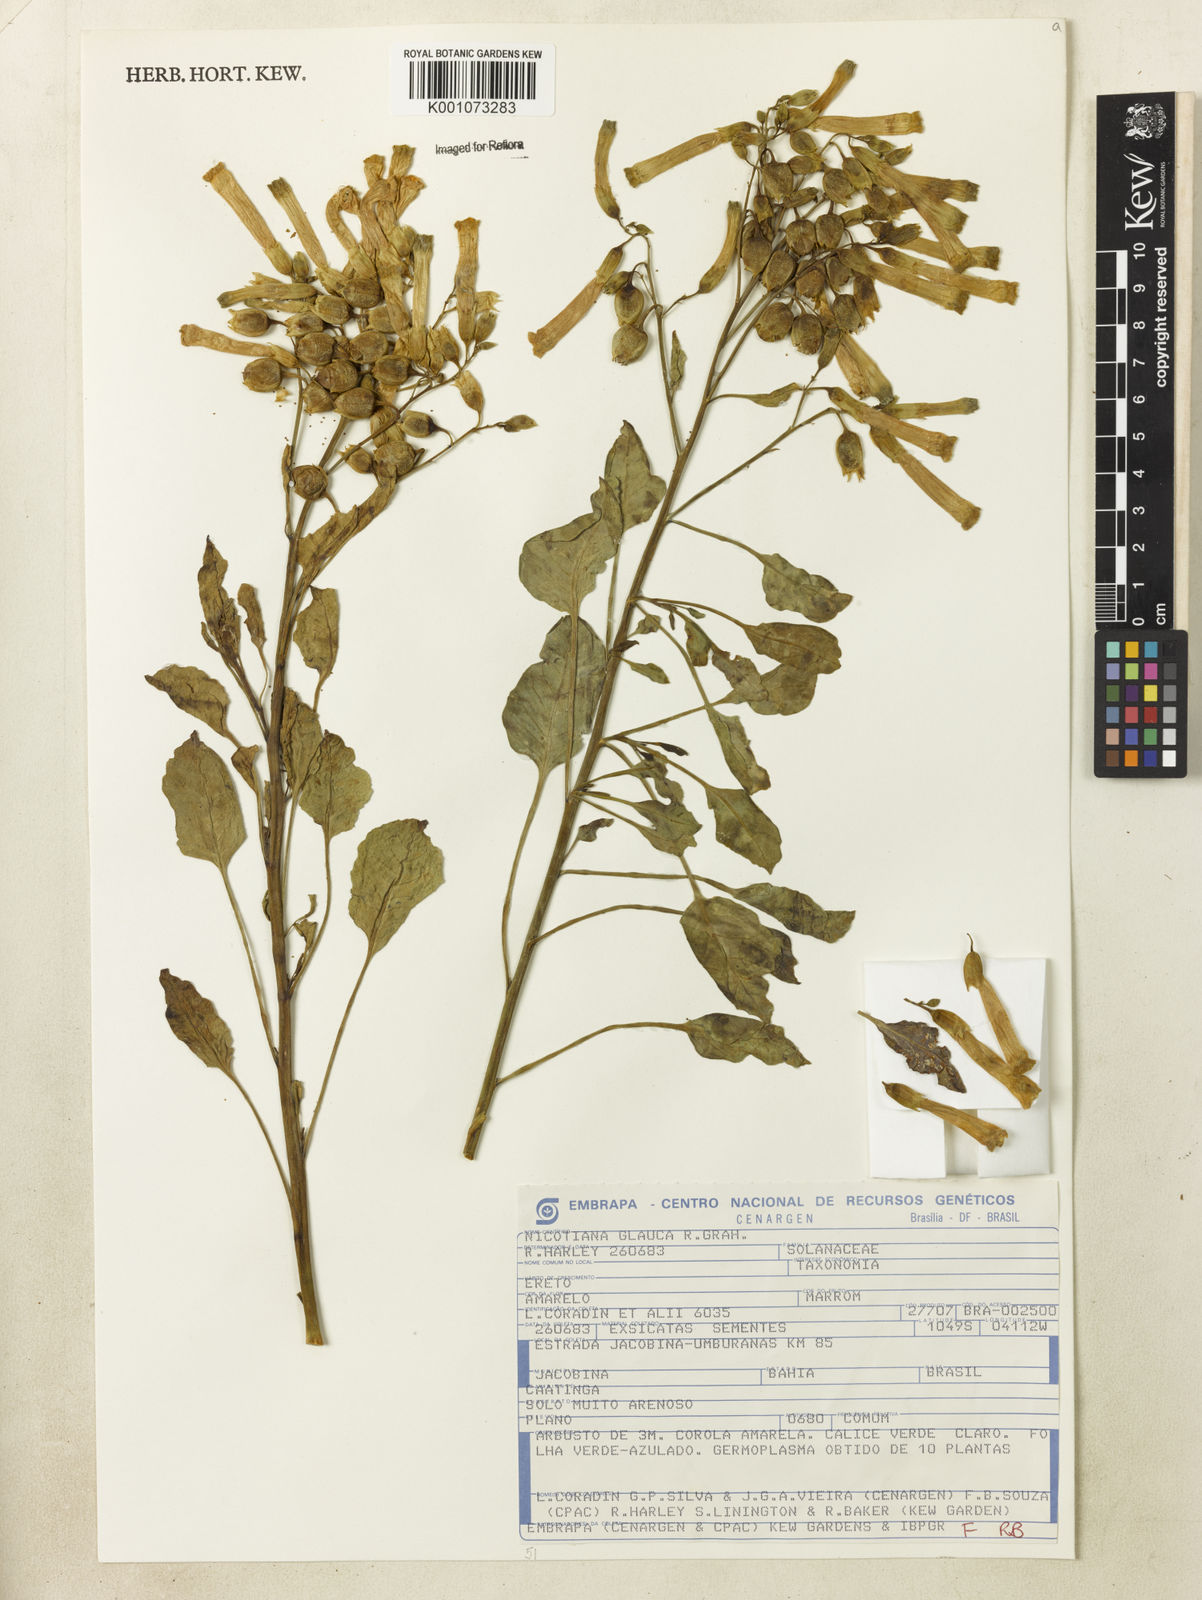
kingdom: Plantae
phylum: Tracheophyta
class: Magnoliopsida
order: Solanales
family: Solanaceae
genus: Nicotiana
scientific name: Nicotiana glauca
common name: Tree tobacco
